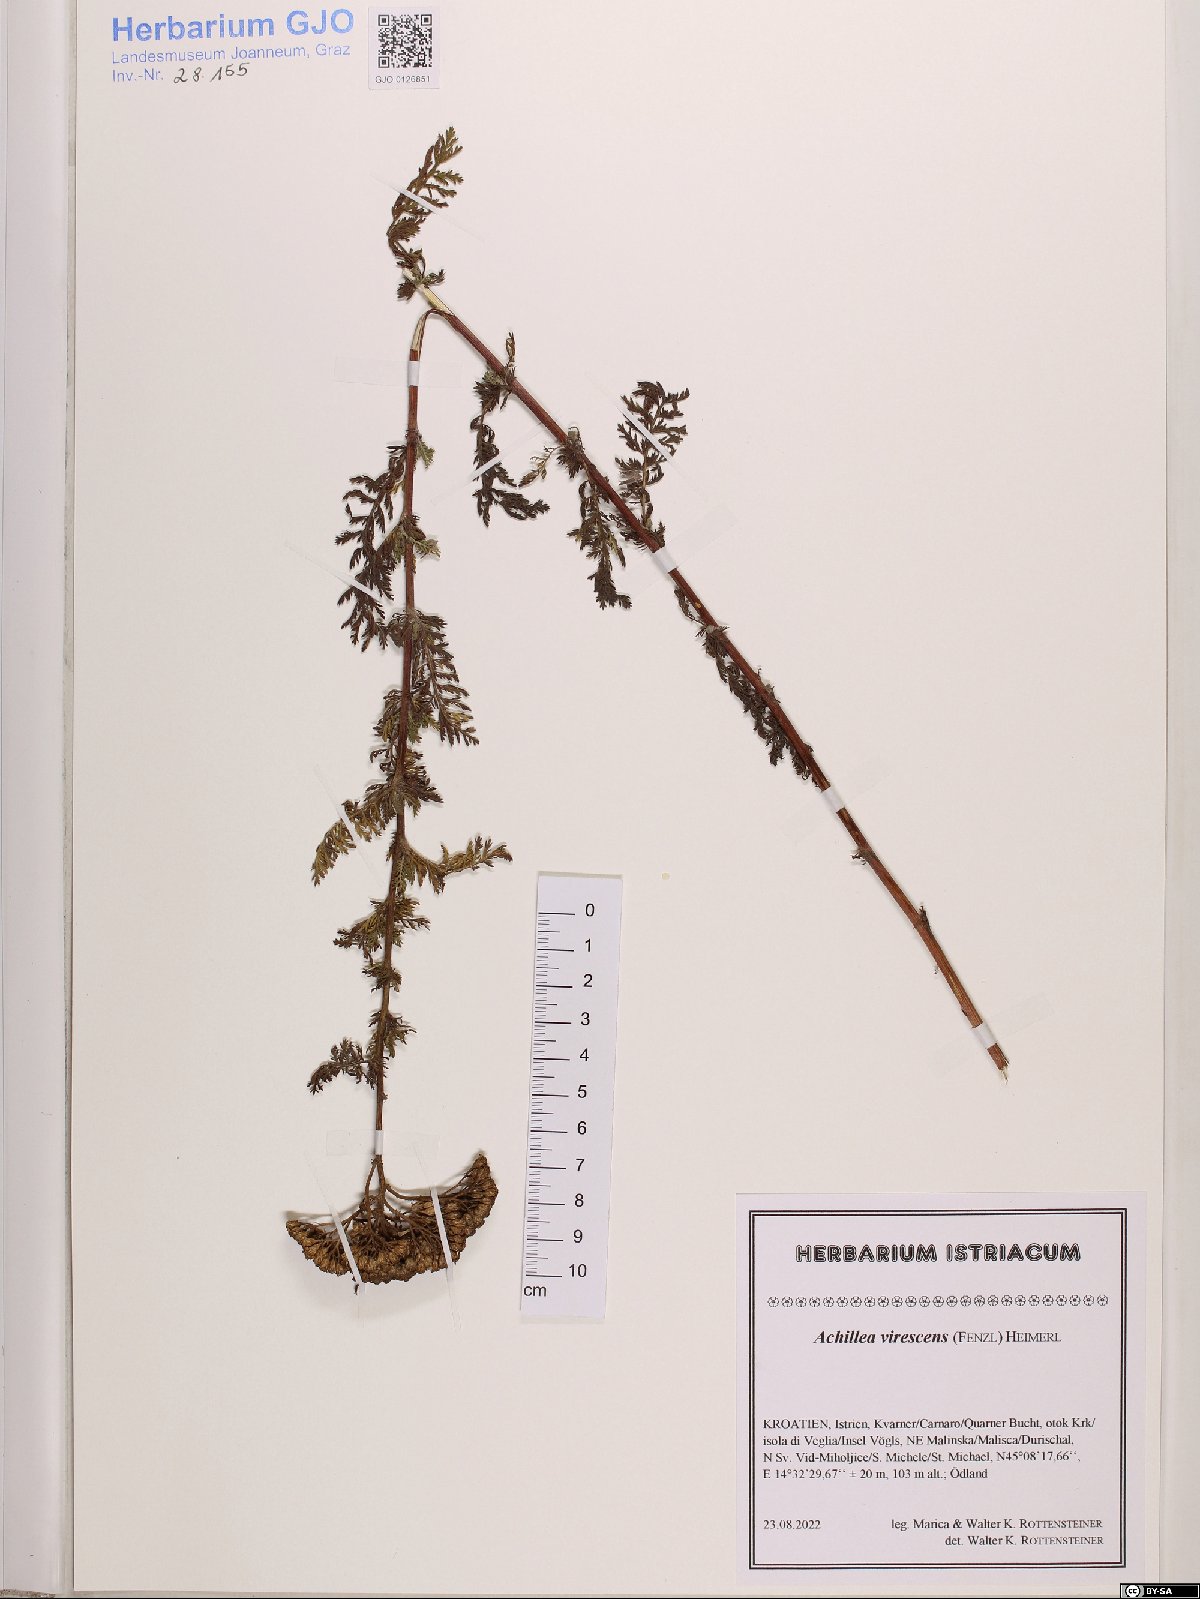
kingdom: Plantae
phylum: Tracheophyta
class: Magnoliopsida
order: Asterales
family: Asteraceae
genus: Achillea
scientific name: Achillea virescens
